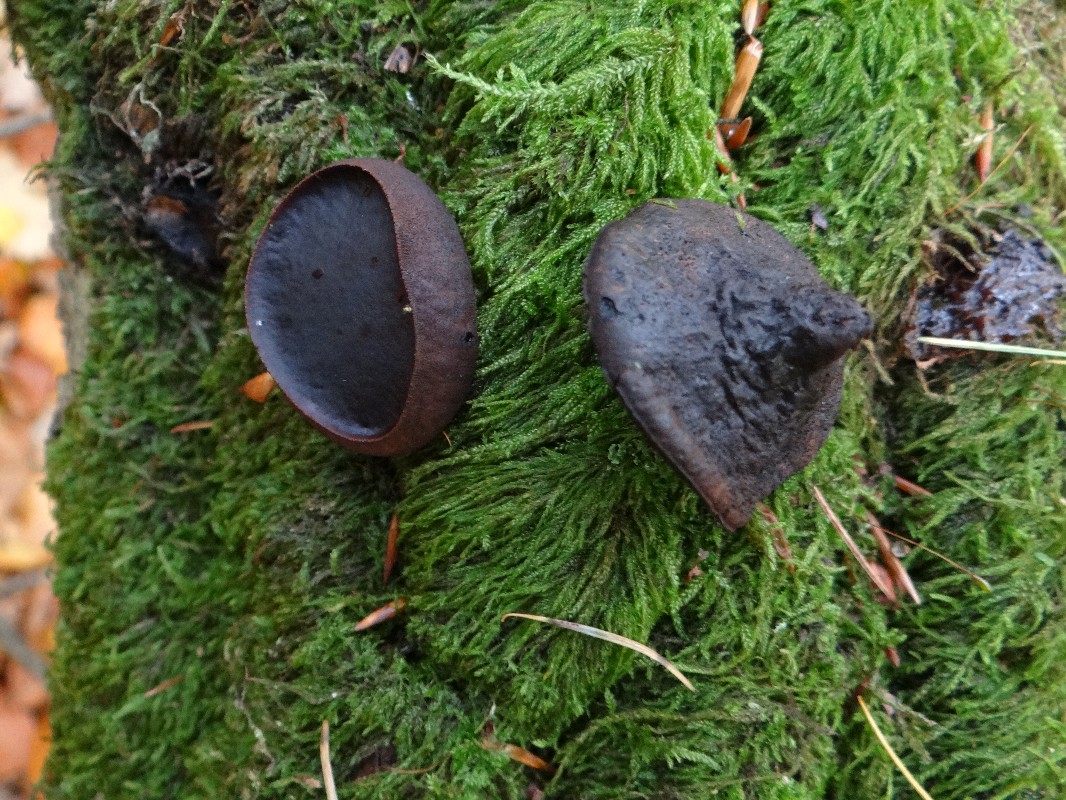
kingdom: Fungi
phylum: Basidiomycota
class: Agaricomycetes
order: Auriculariales
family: Auriculariaceae
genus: Exidia
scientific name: Exidia nigricans
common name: almindelig bævretop
